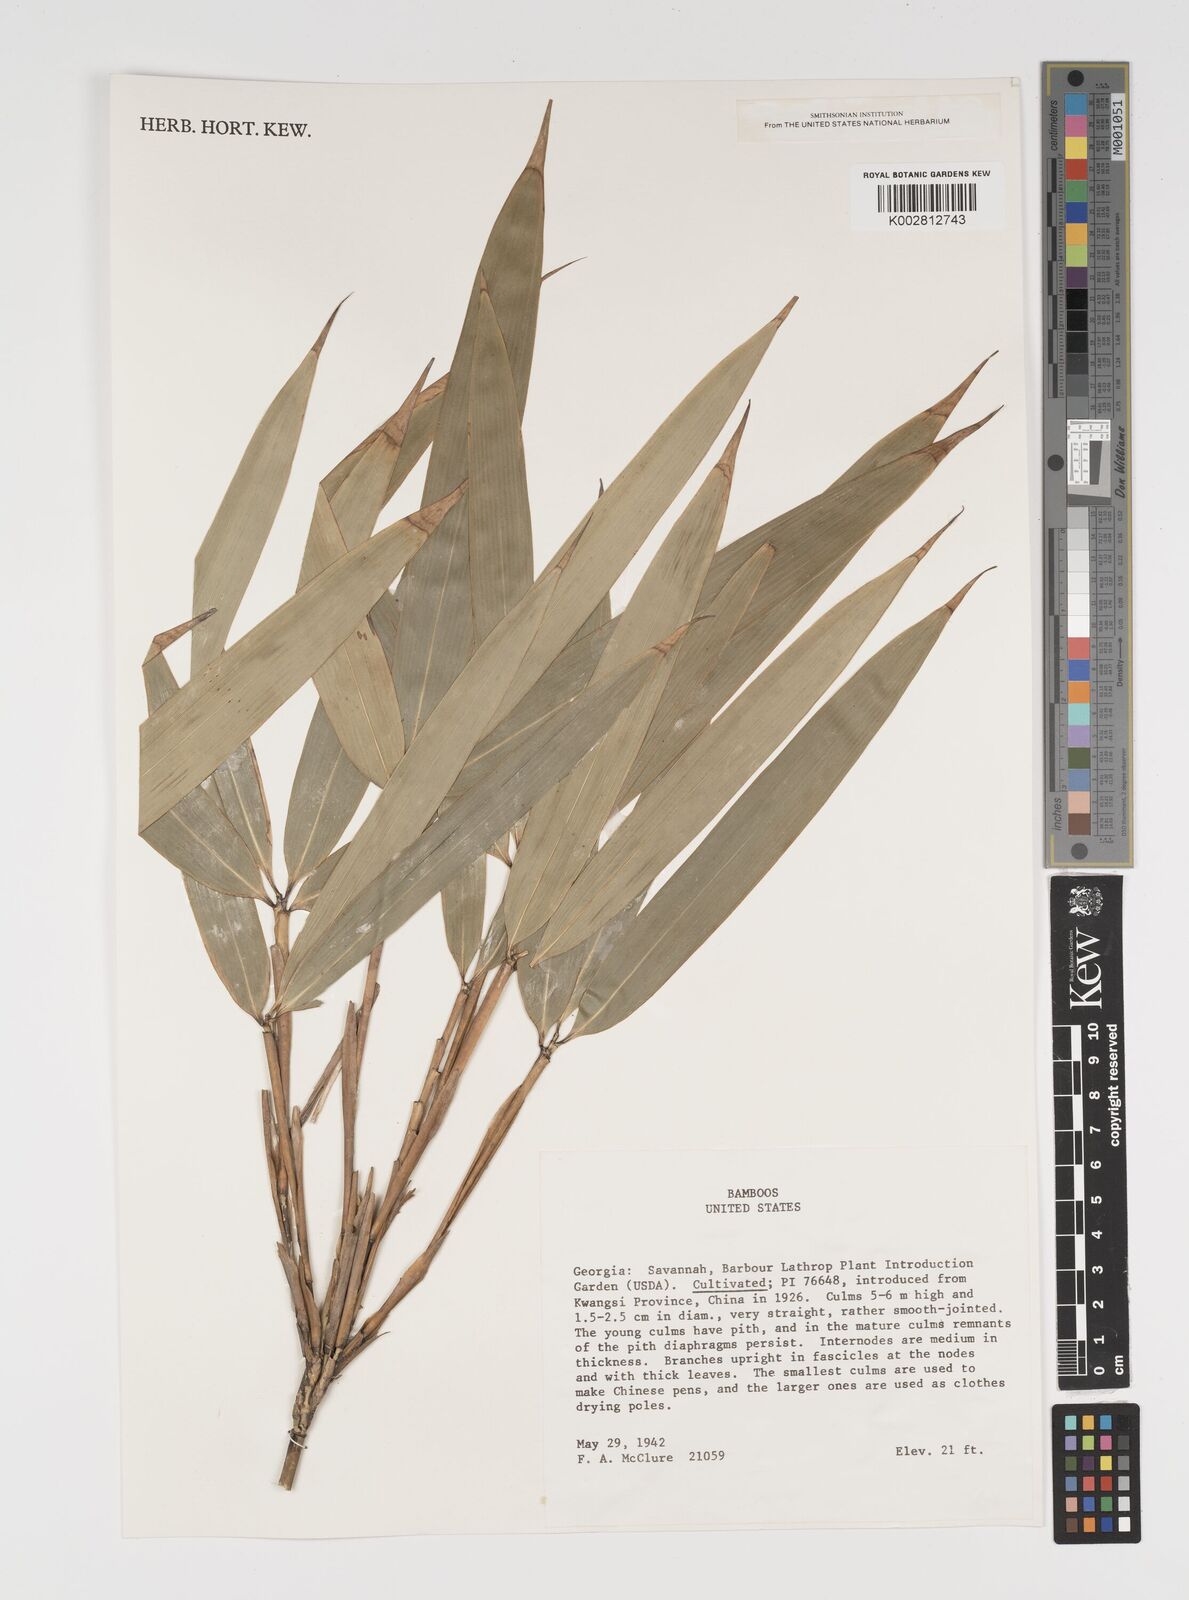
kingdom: Plantae
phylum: Tracheophyta
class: Liliopsida
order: Poales
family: Poaceae
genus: Arundinaria
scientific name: Arundinaria
